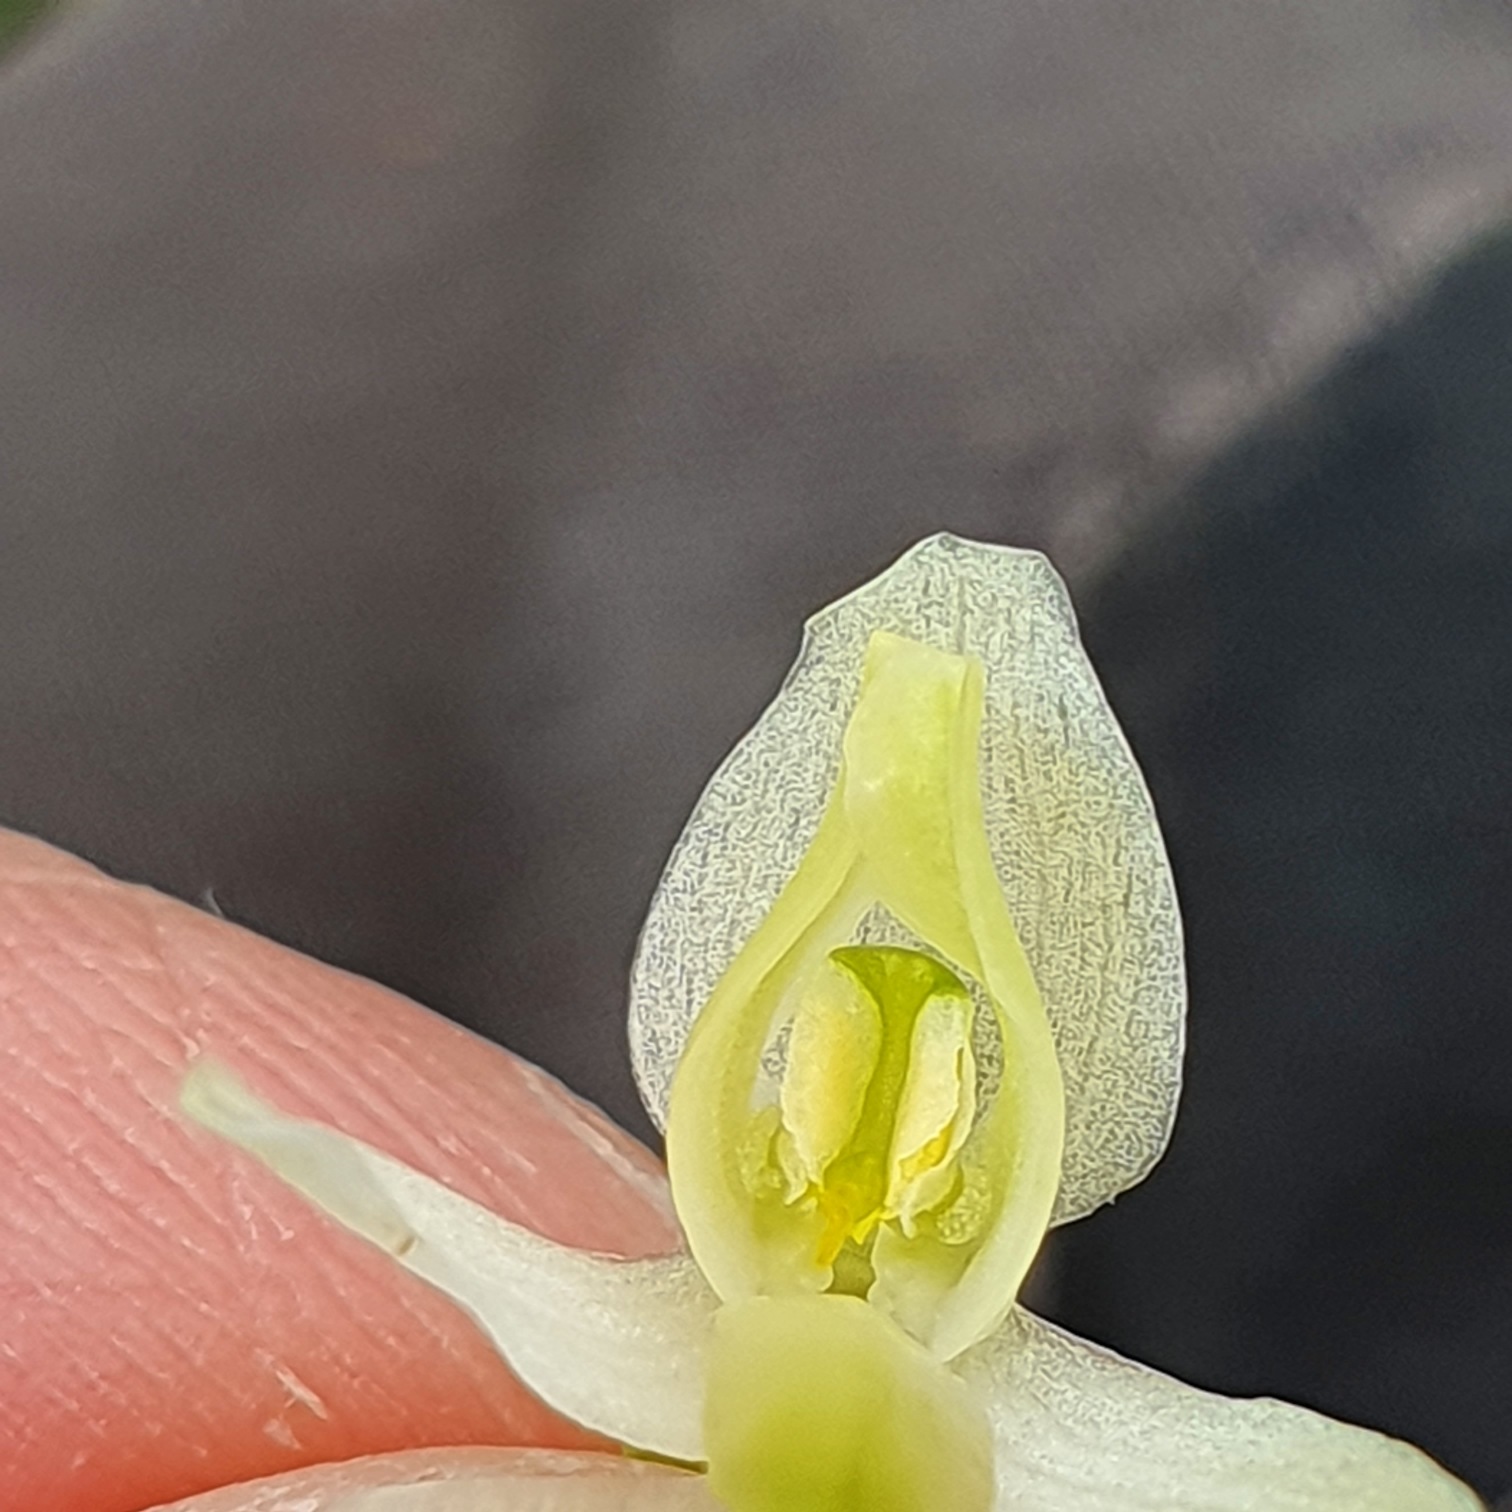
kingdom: Plantae
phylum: Tracheophyta
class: Liliopsida
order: Asparagales
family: Orchidaceae
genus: Platanthera
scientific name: Platanthera bifolia
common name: Bakke-gøgelilje
